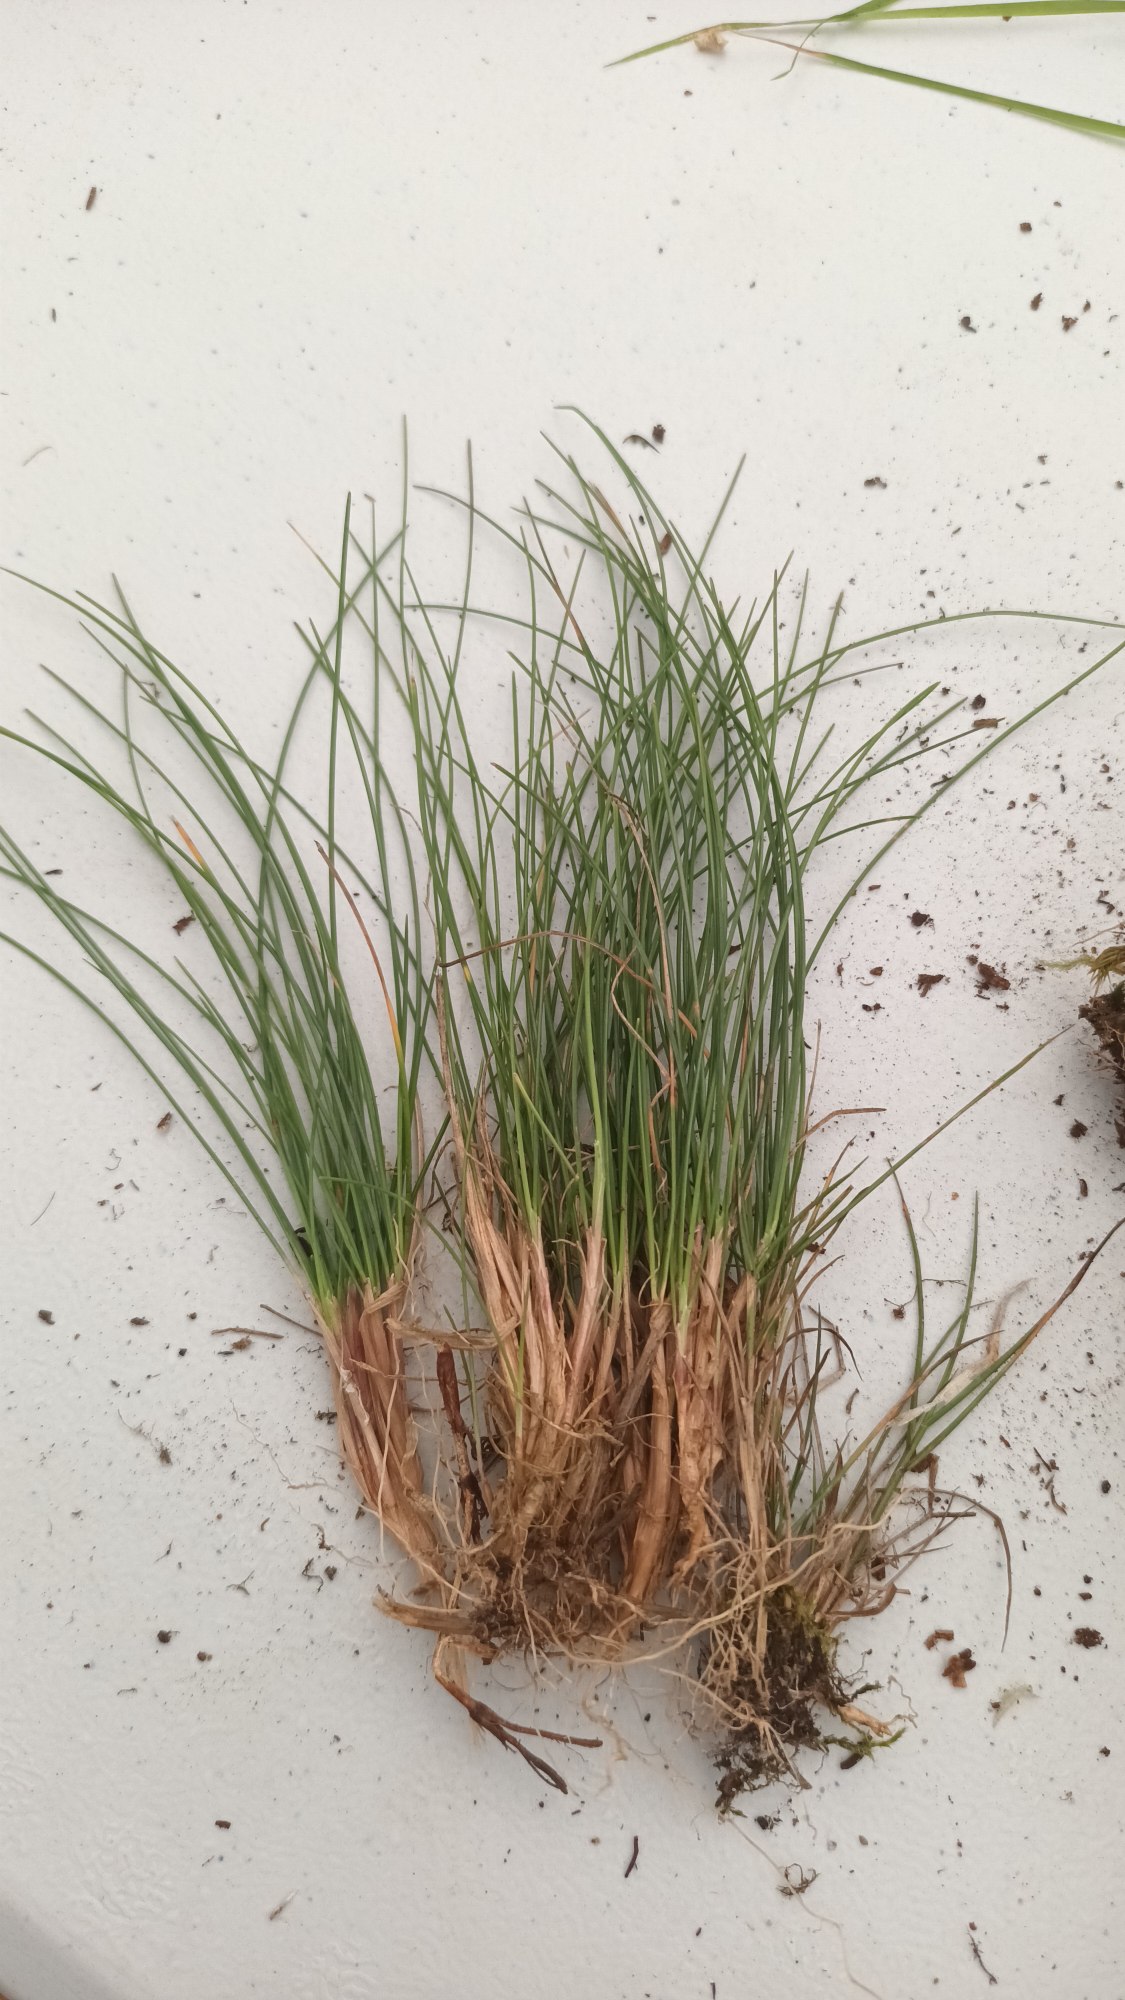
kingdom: Plantae
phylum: Tracheophyta
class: Liliopsida
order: Poales
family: Poaceae
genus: Festuca
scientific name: Festuca rubra
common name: Rød svingel
